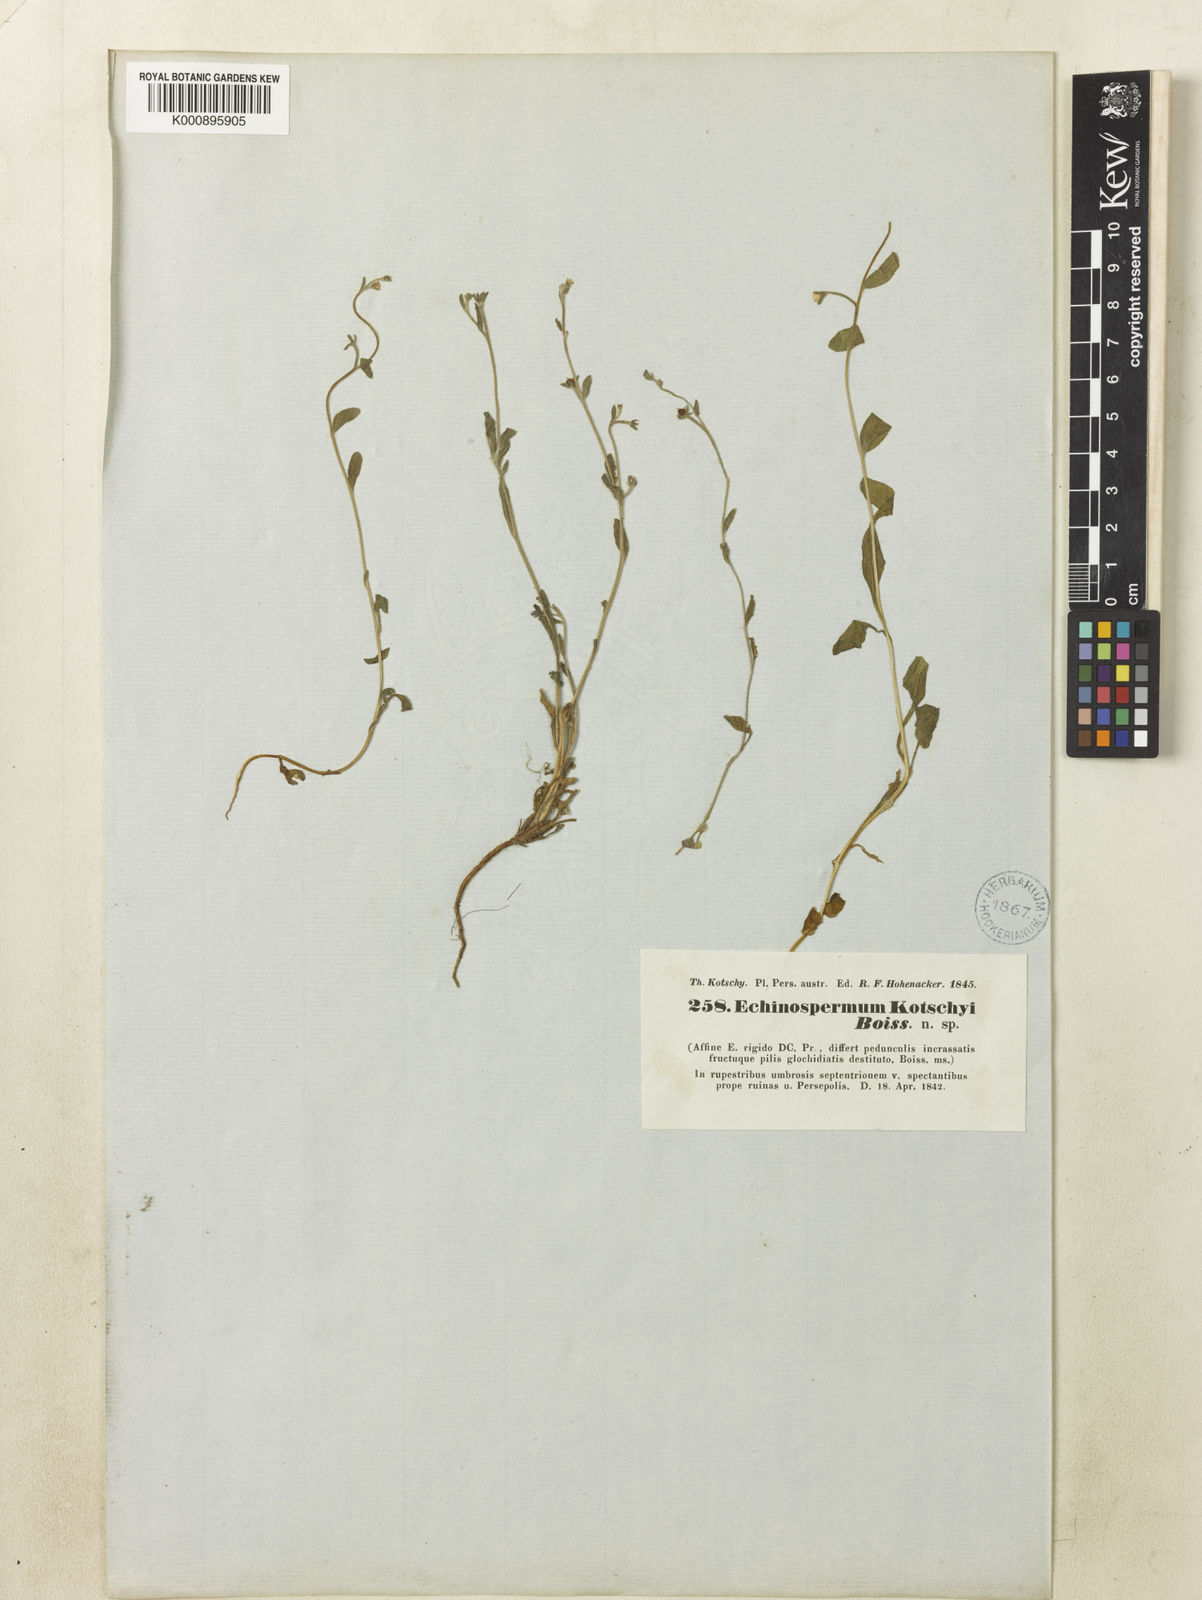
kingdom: Plantae
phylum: Tracheophyta
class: Magnoliopsida
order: Boraginales
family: Boraginaceae
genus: Pseudolappula
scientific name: Pseudolappula sinaica
